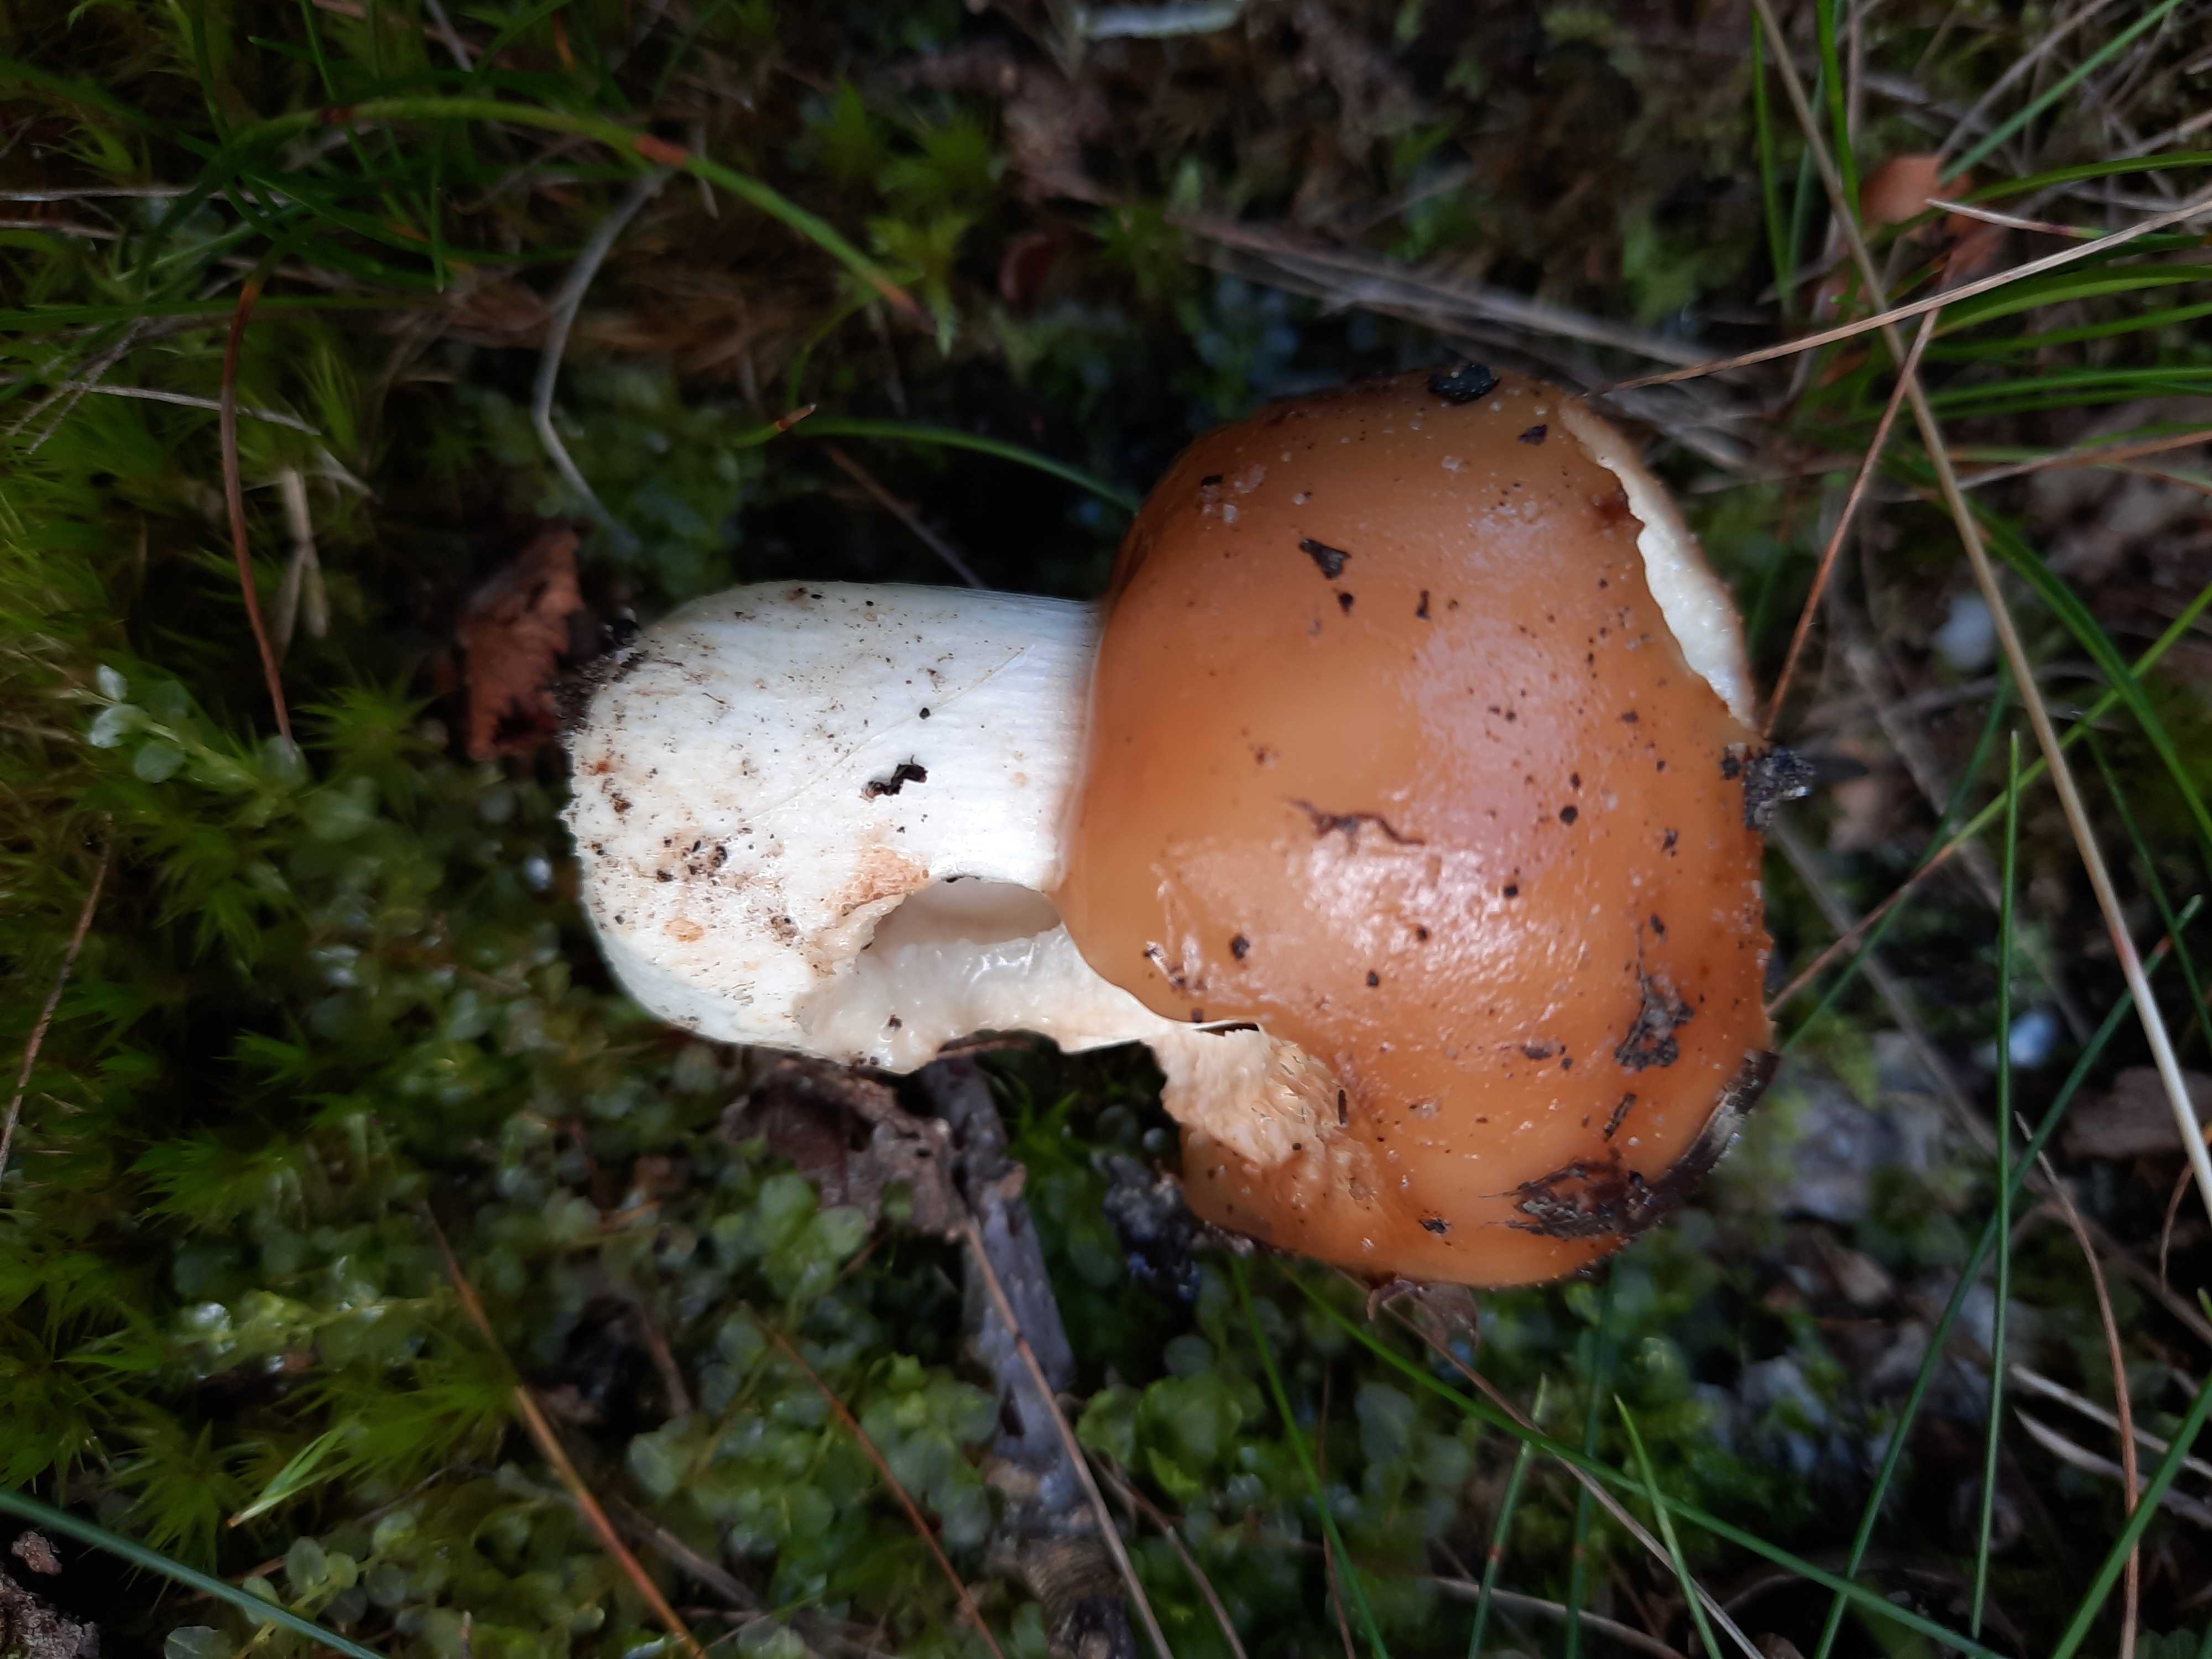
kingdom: Fungi
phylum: Basidiomycota
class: Agaricomycetes
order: Russulales
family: Russulaceae
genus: Russula
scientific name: Russula foetens
